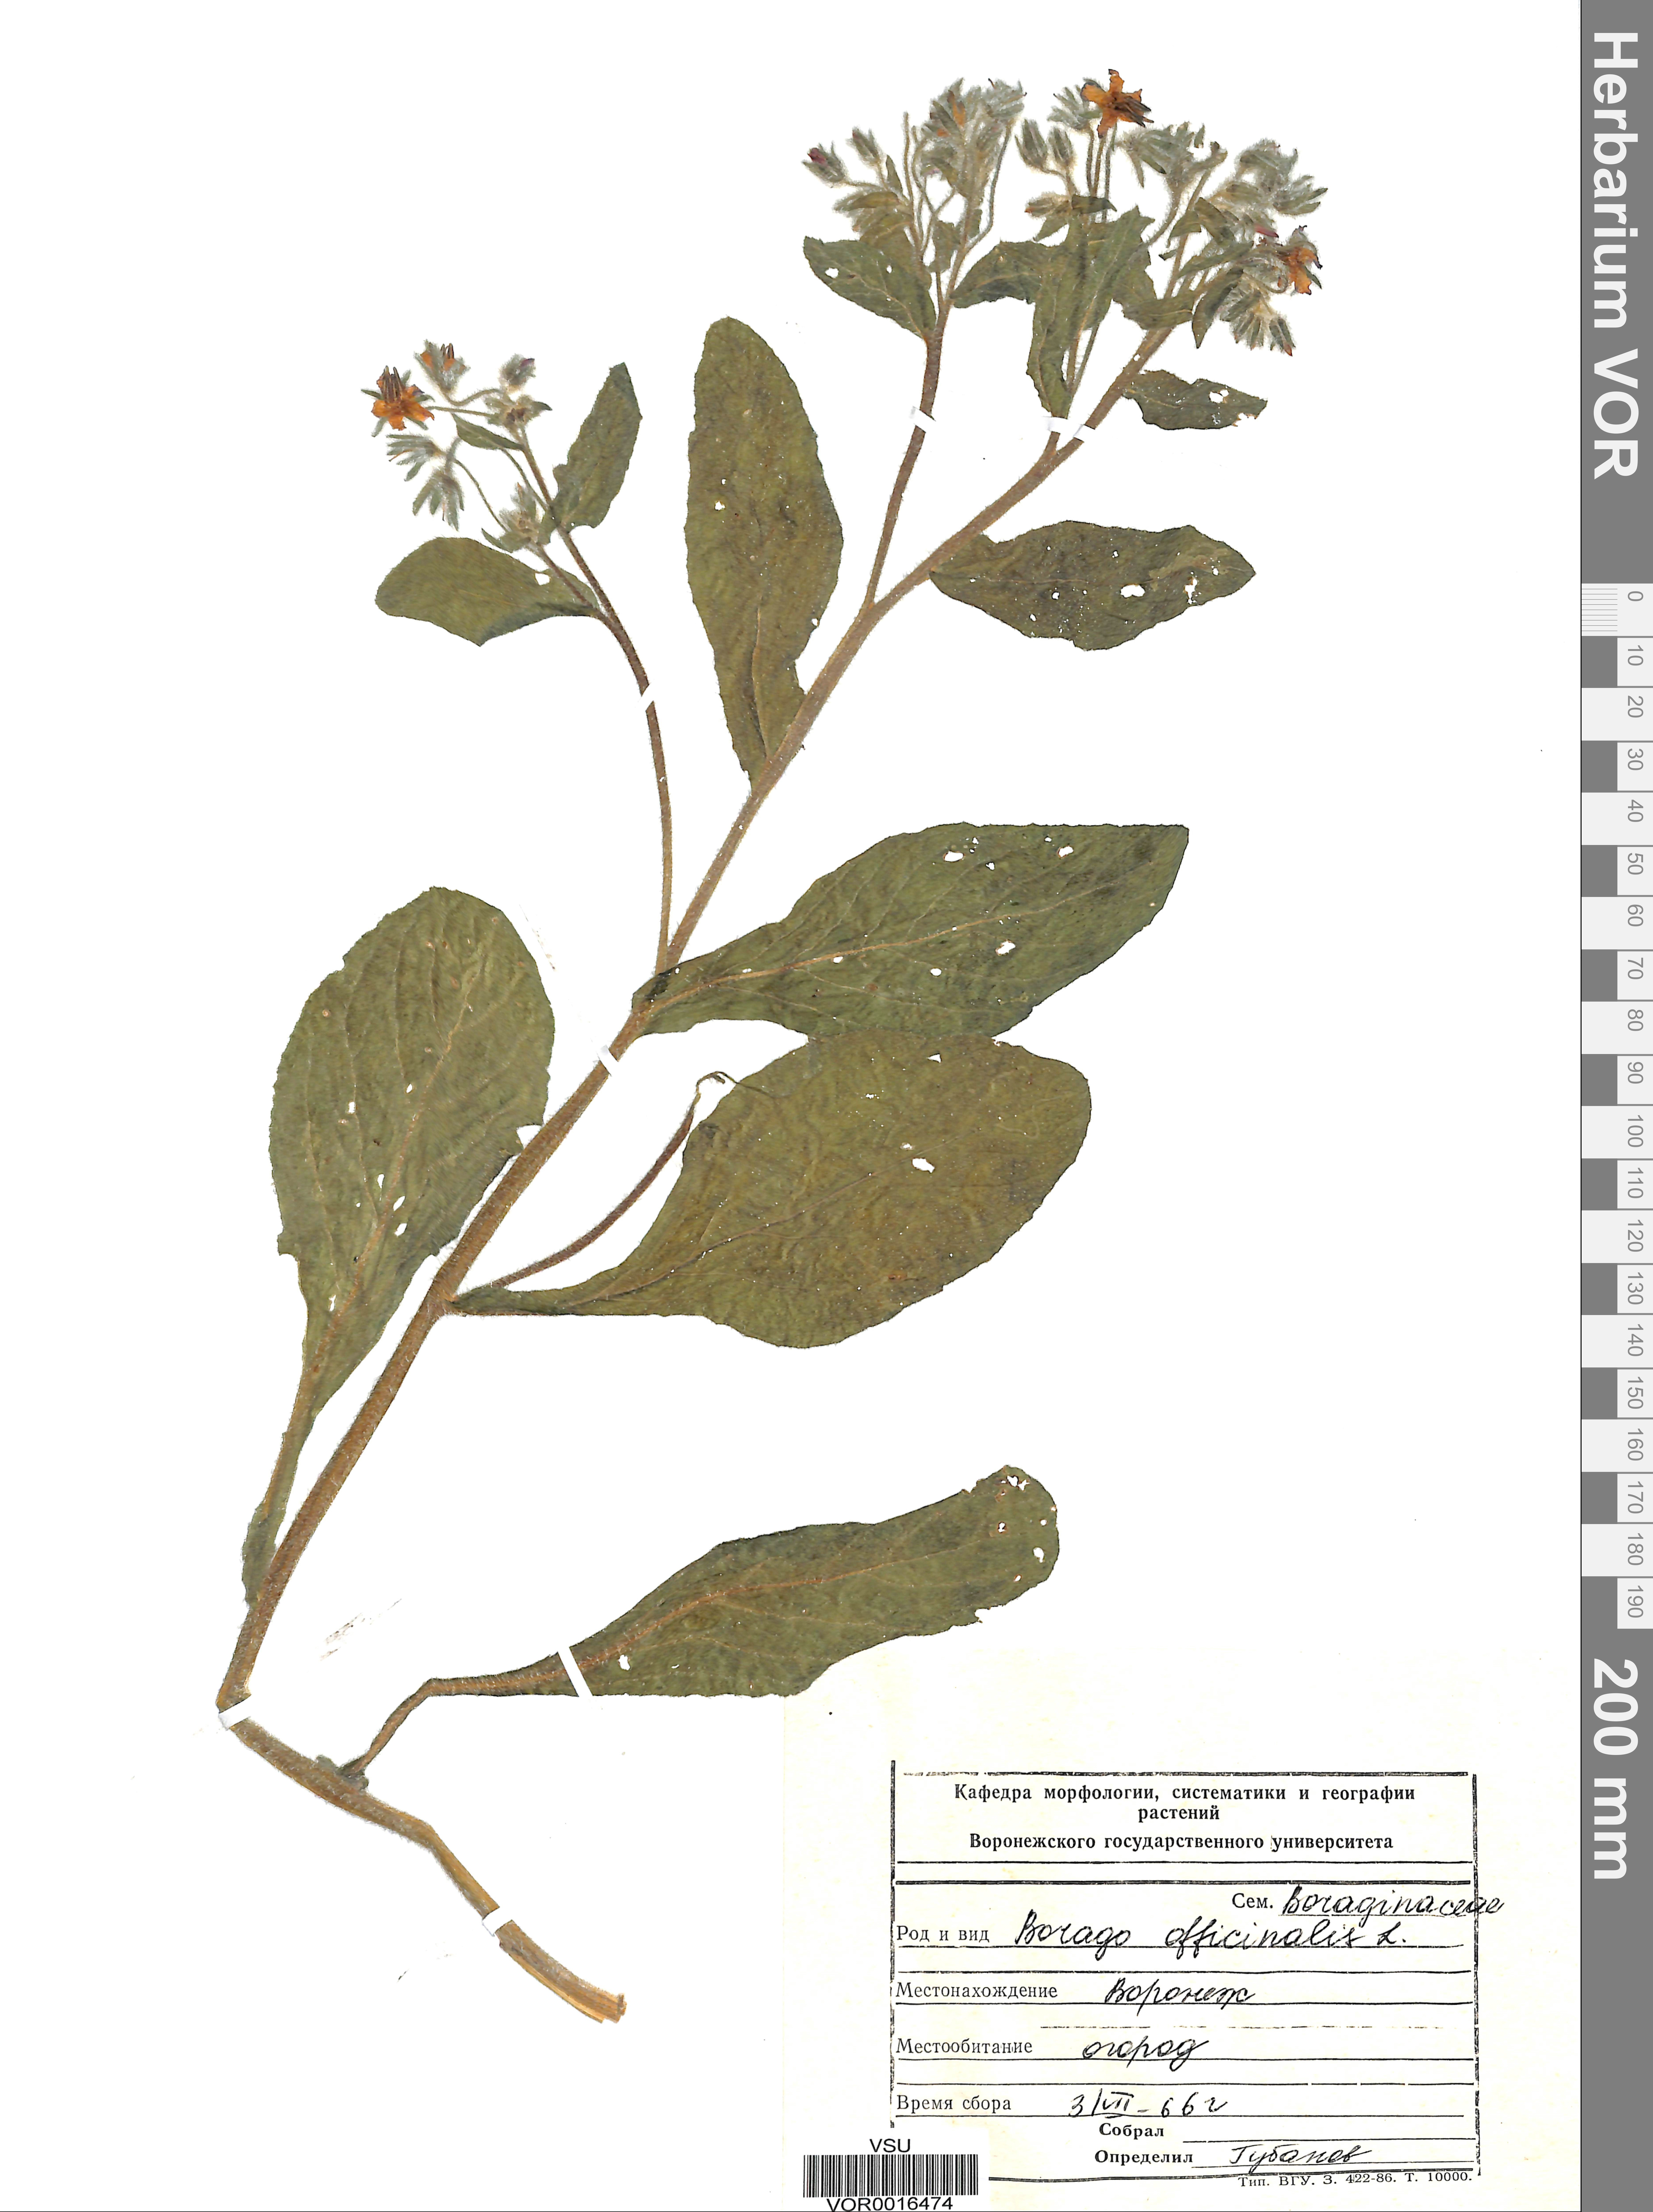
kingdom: Plantae
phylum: Tracheophyta
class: Magnoliopsida
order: Boraginales
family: Boraginaceae
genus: Borago
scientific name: Borago officinalis
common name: Borage
